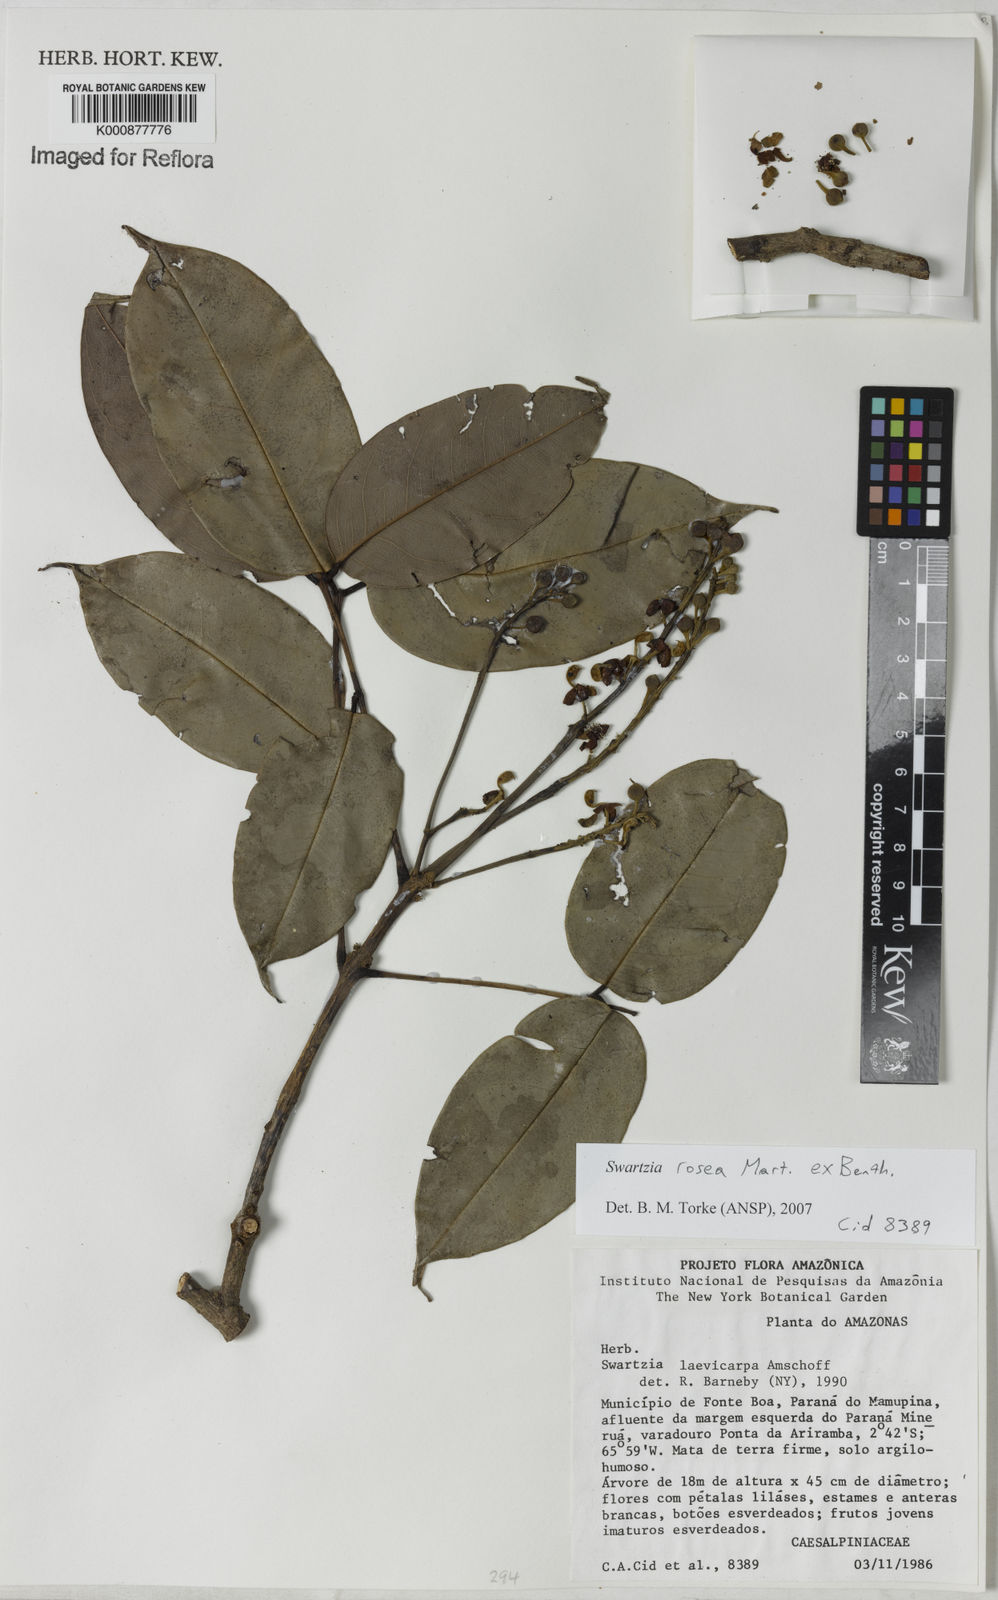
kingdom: Plantae
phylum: Tracheophyta
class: Magnoliopsida
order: Fabales
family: Fabaceae
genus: Swartzia
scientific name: Swartzia rosea
